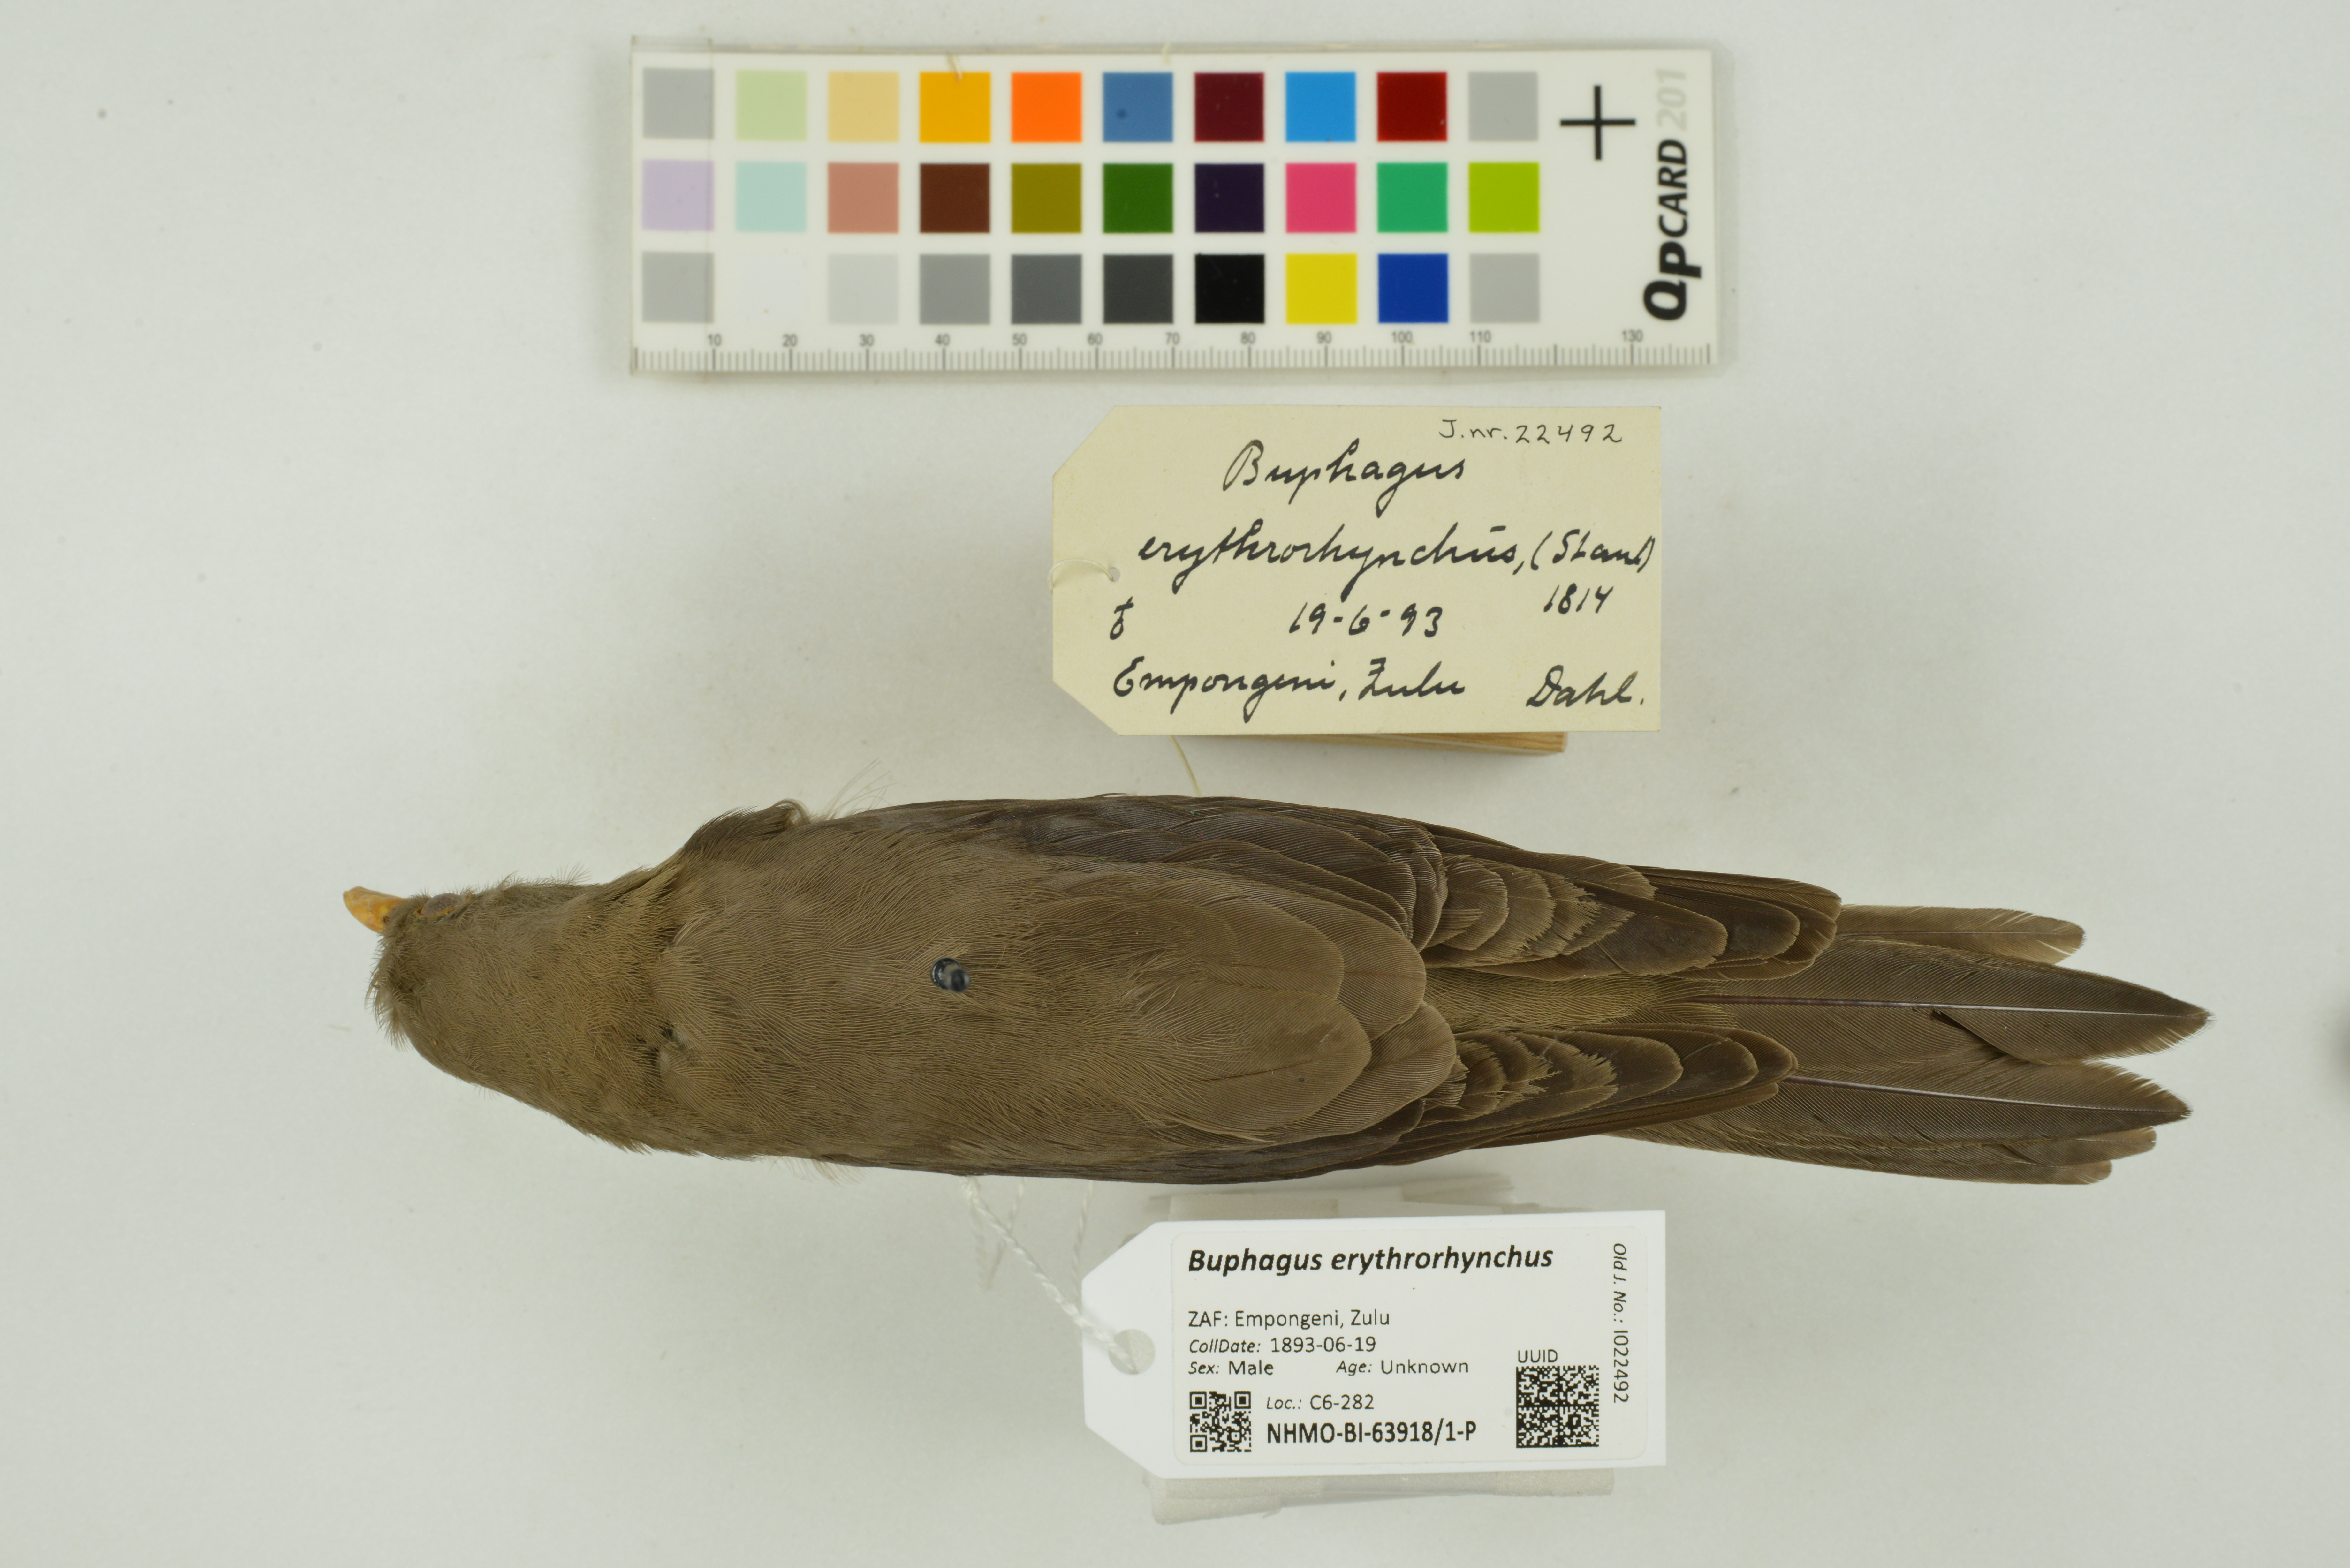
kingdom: Animalia
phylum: Chordata
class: Aves
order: Passeriformes
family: Buphagidae
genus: Buphagus
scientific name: Buphagus erythrorhynchus
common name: Red-billed oxpecker
